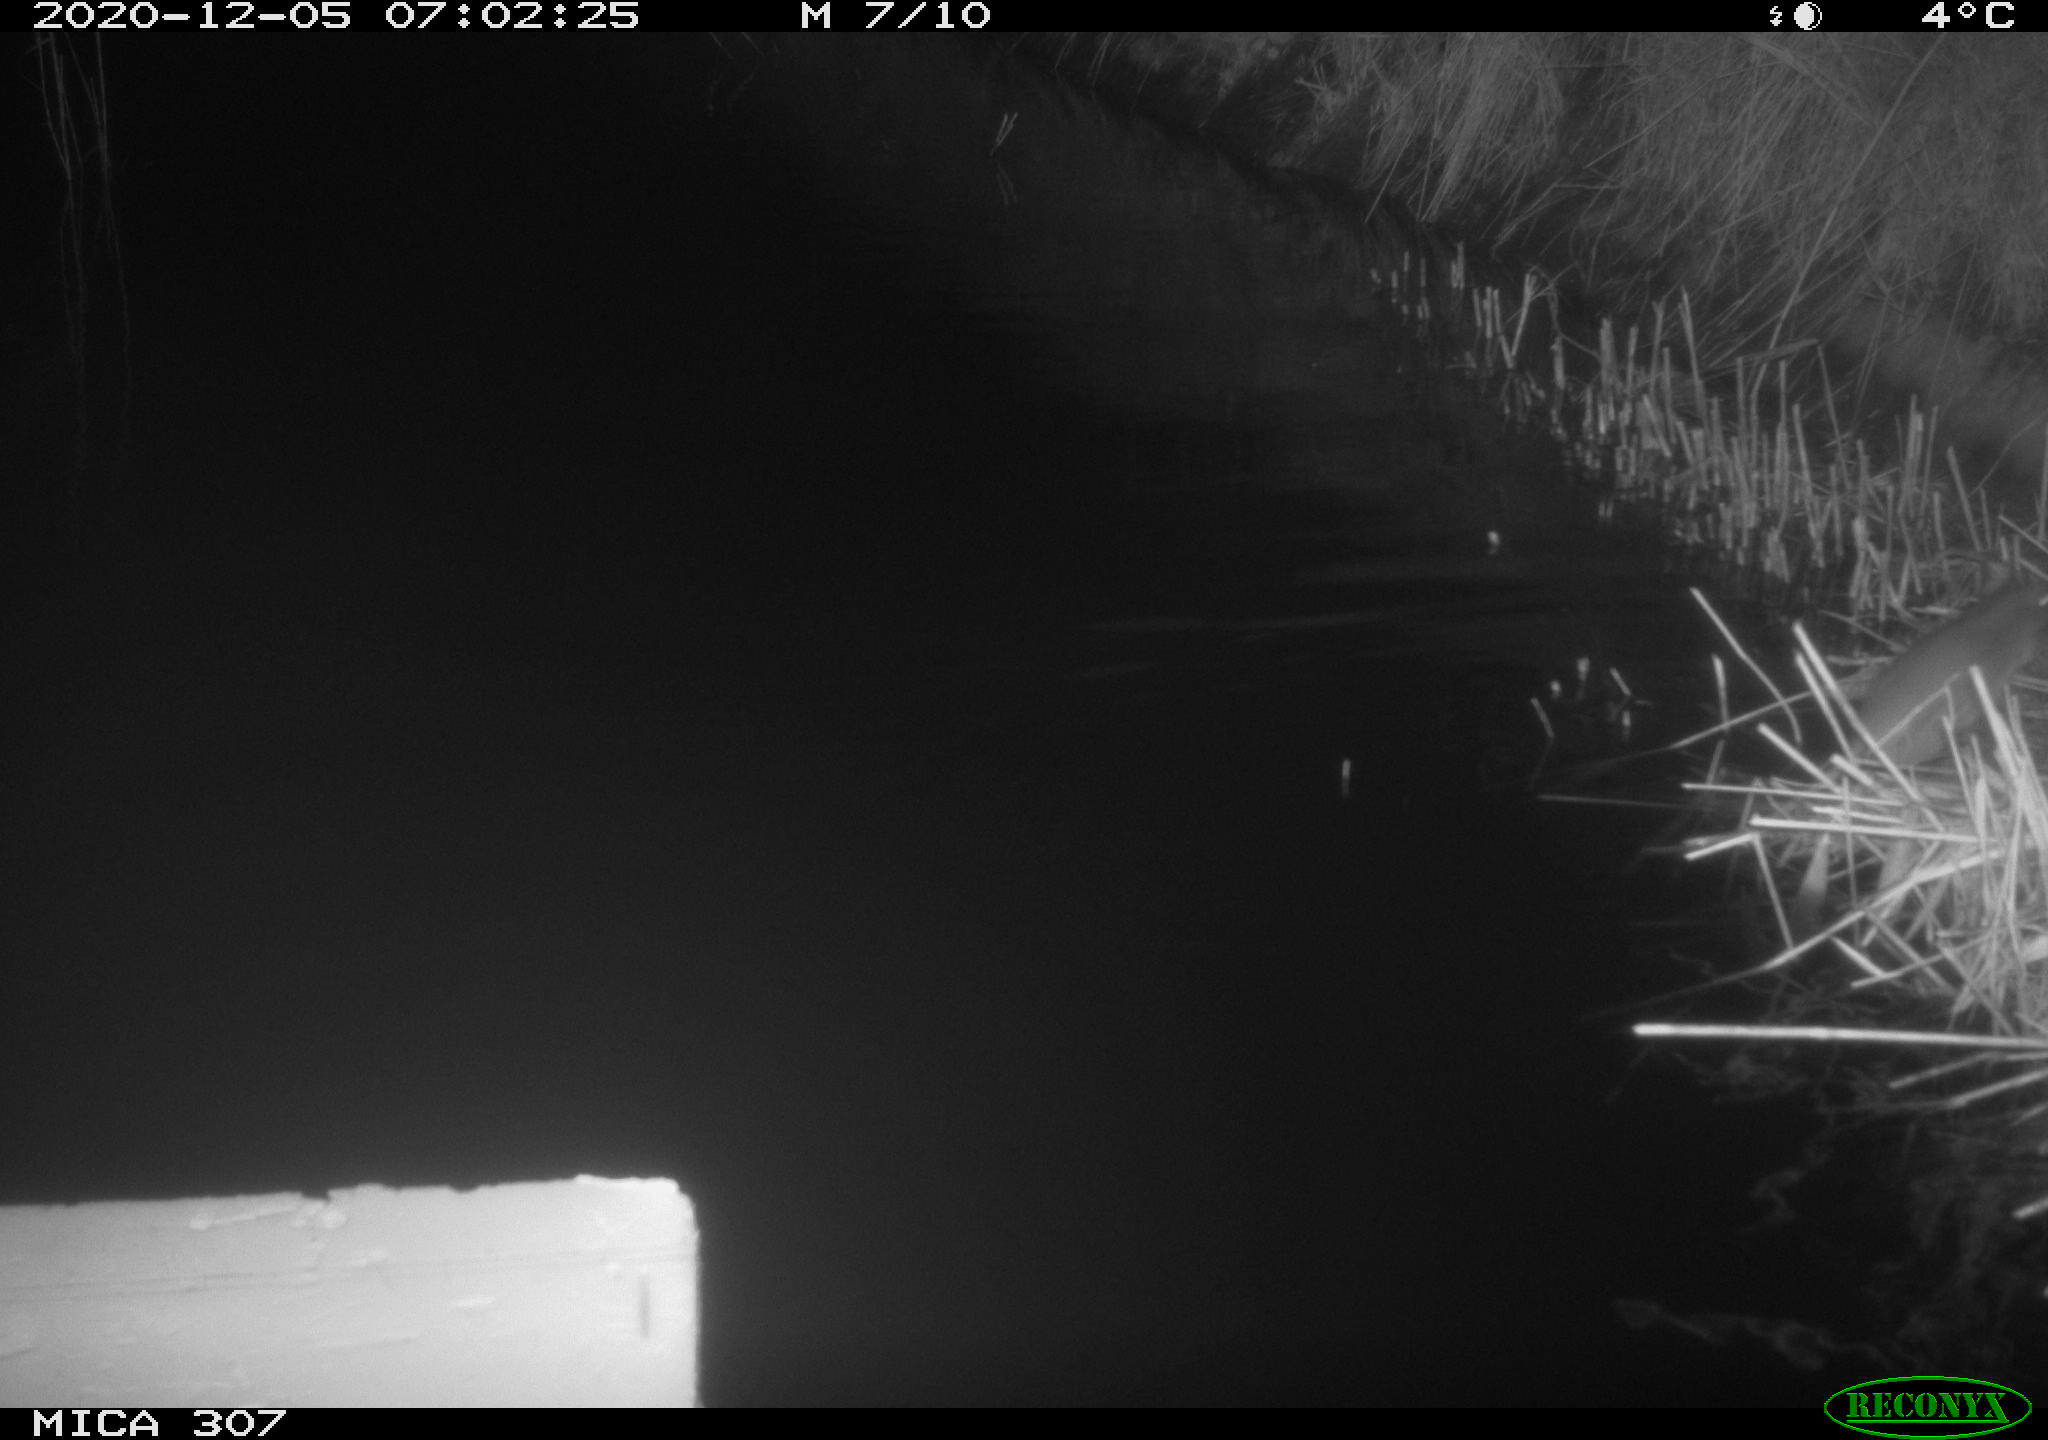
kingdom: Animalia
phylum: Chordata
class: Mammalia
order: Rodentia
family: Muridae
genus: Rattus
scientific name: Rattus norvegicus
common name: Brown rat
